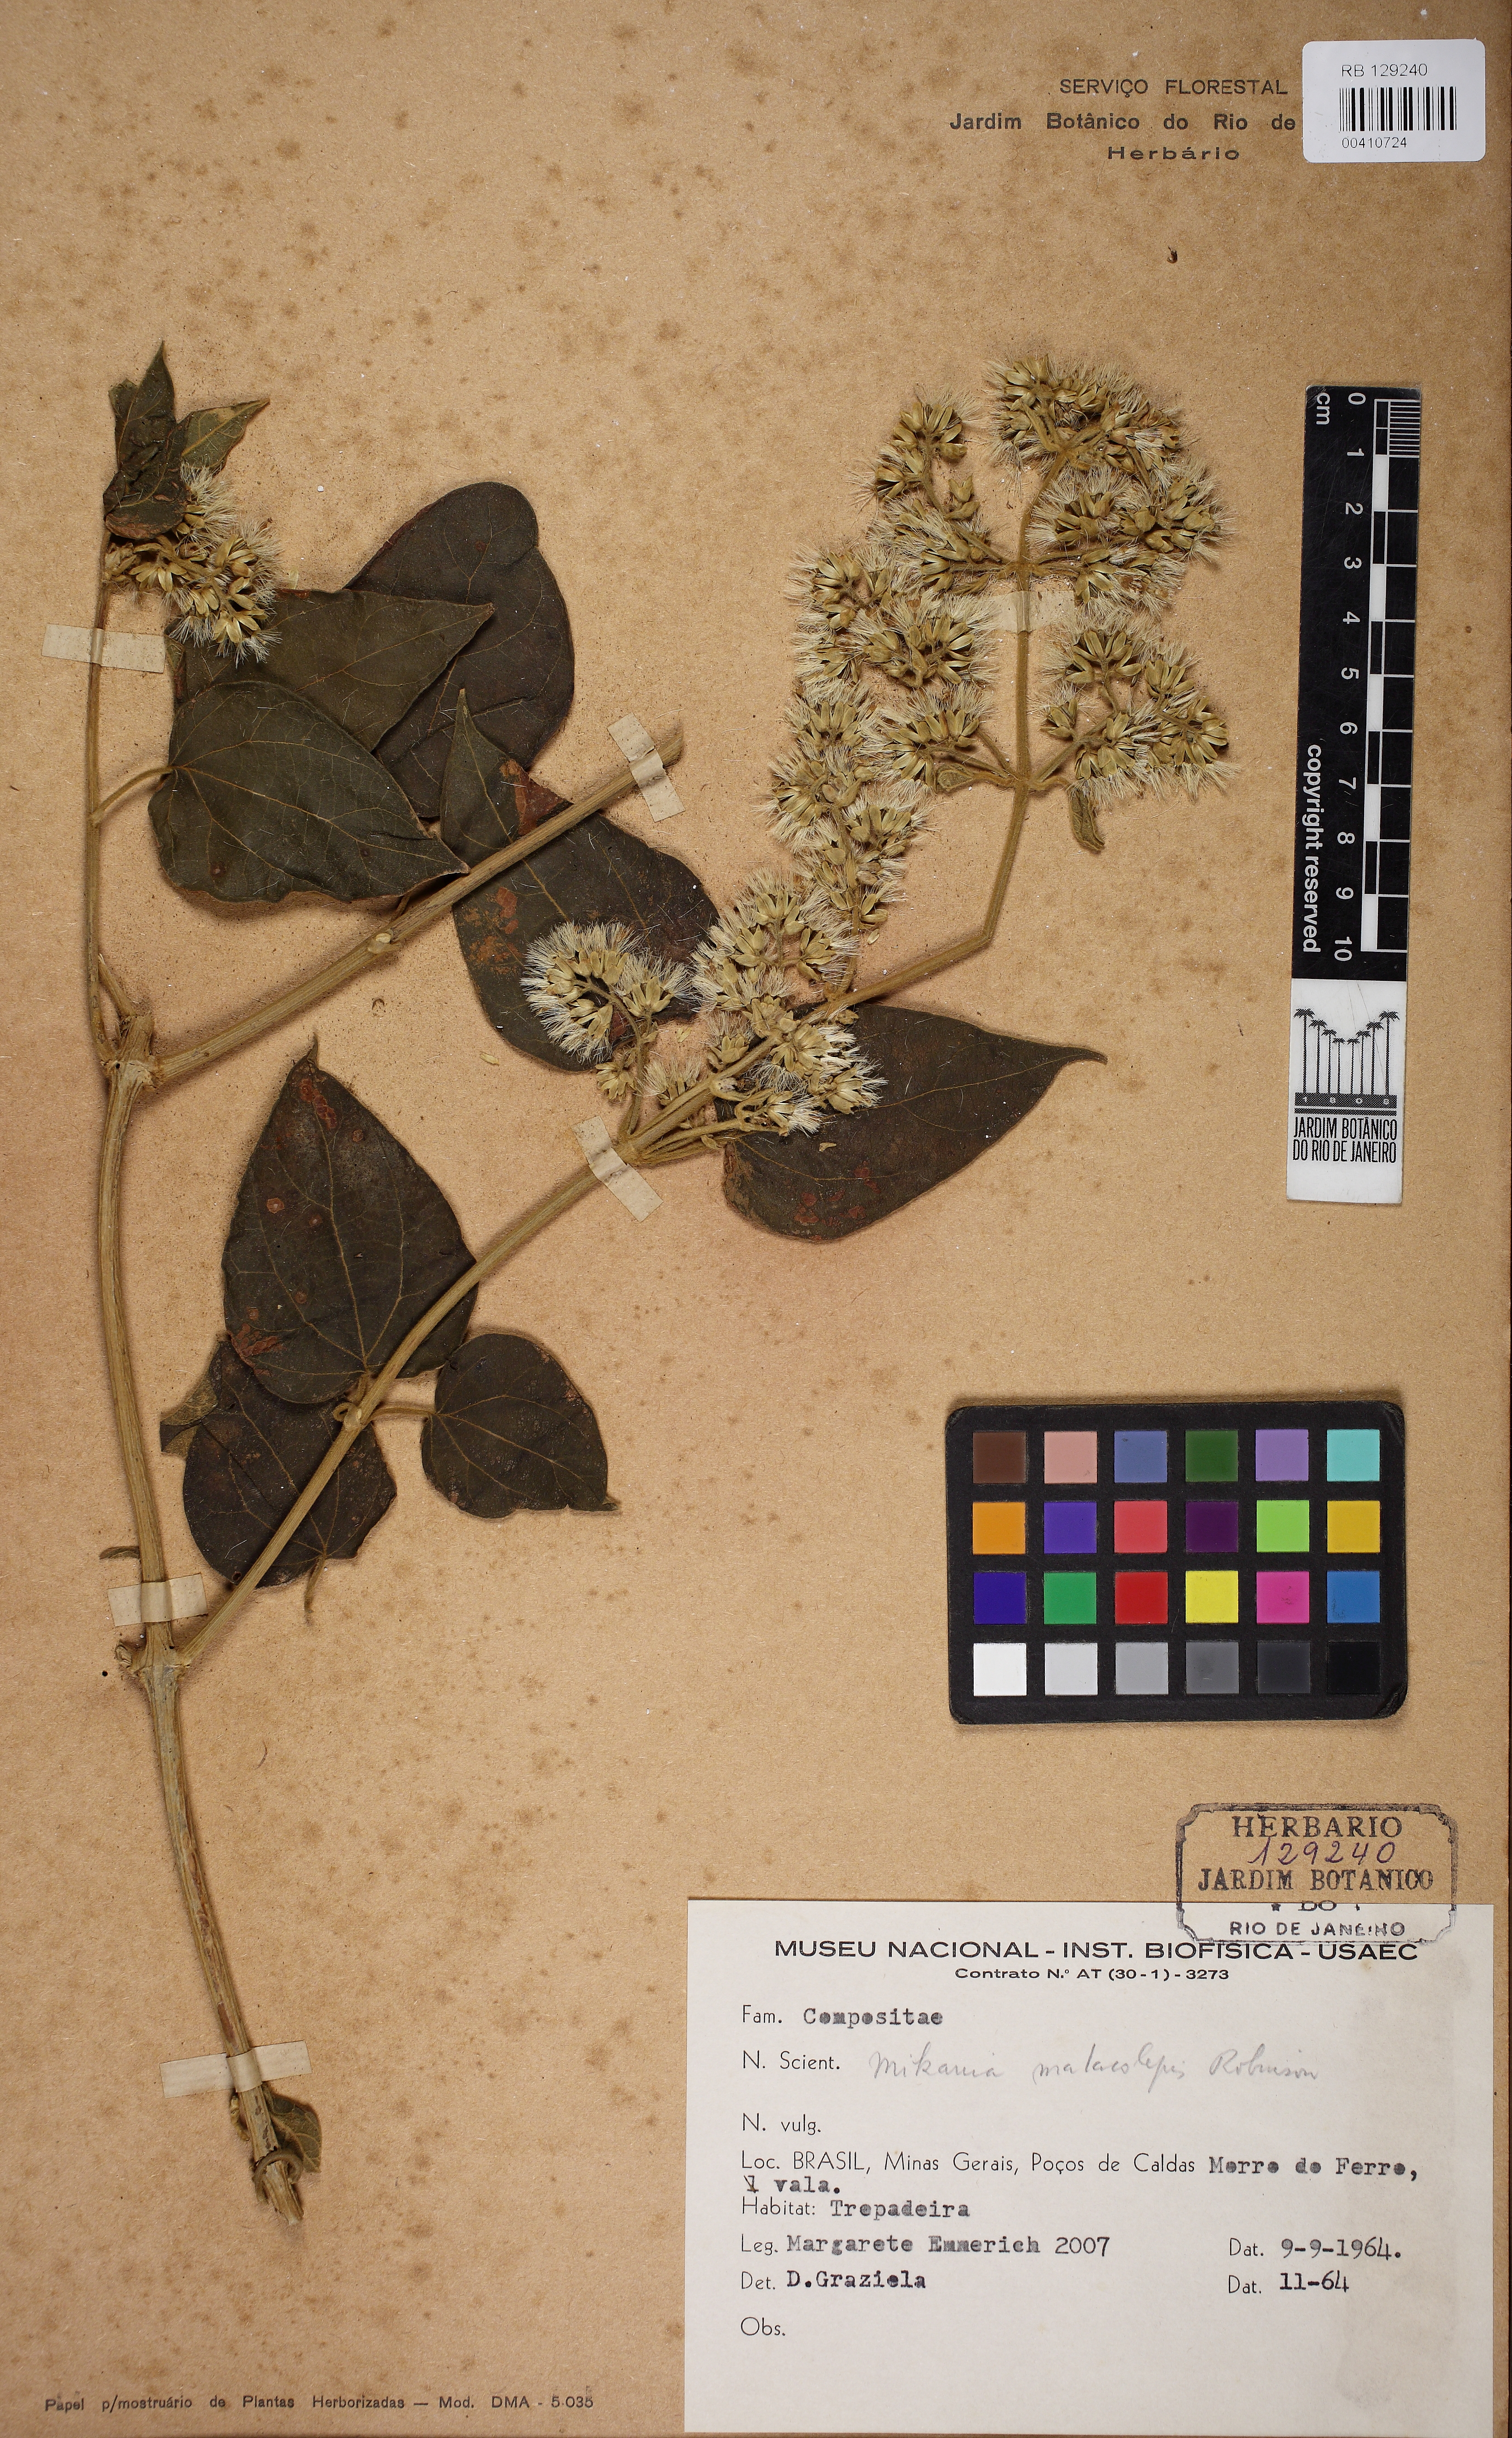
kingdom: Plantae
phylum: Tracheophyta
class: Magnoliopsida
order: Asterales
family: Asteraceae
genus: Mikania
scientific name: Mikania malacolepis
